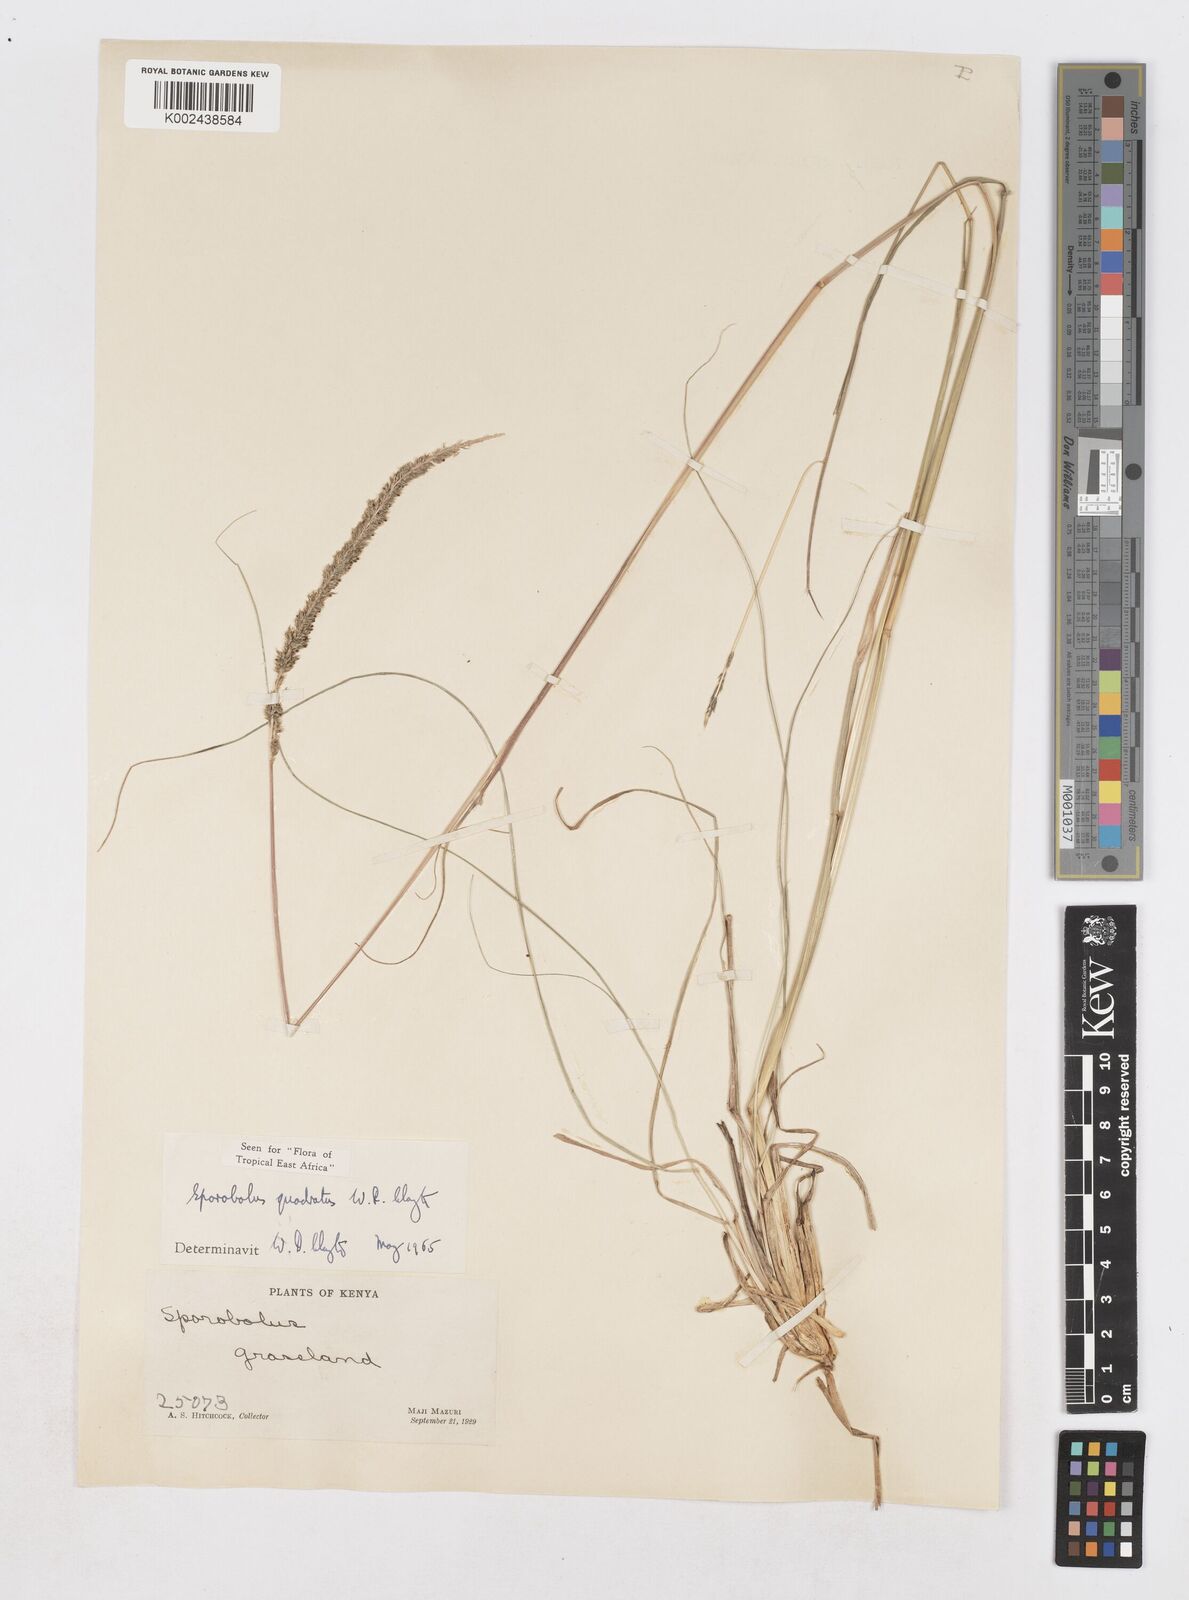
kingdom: Plantae
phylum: Tracheophyta
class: Liliopsida
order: Poales
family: Poaceae
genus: Sporobolus
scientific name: Sporobolus quadratus
